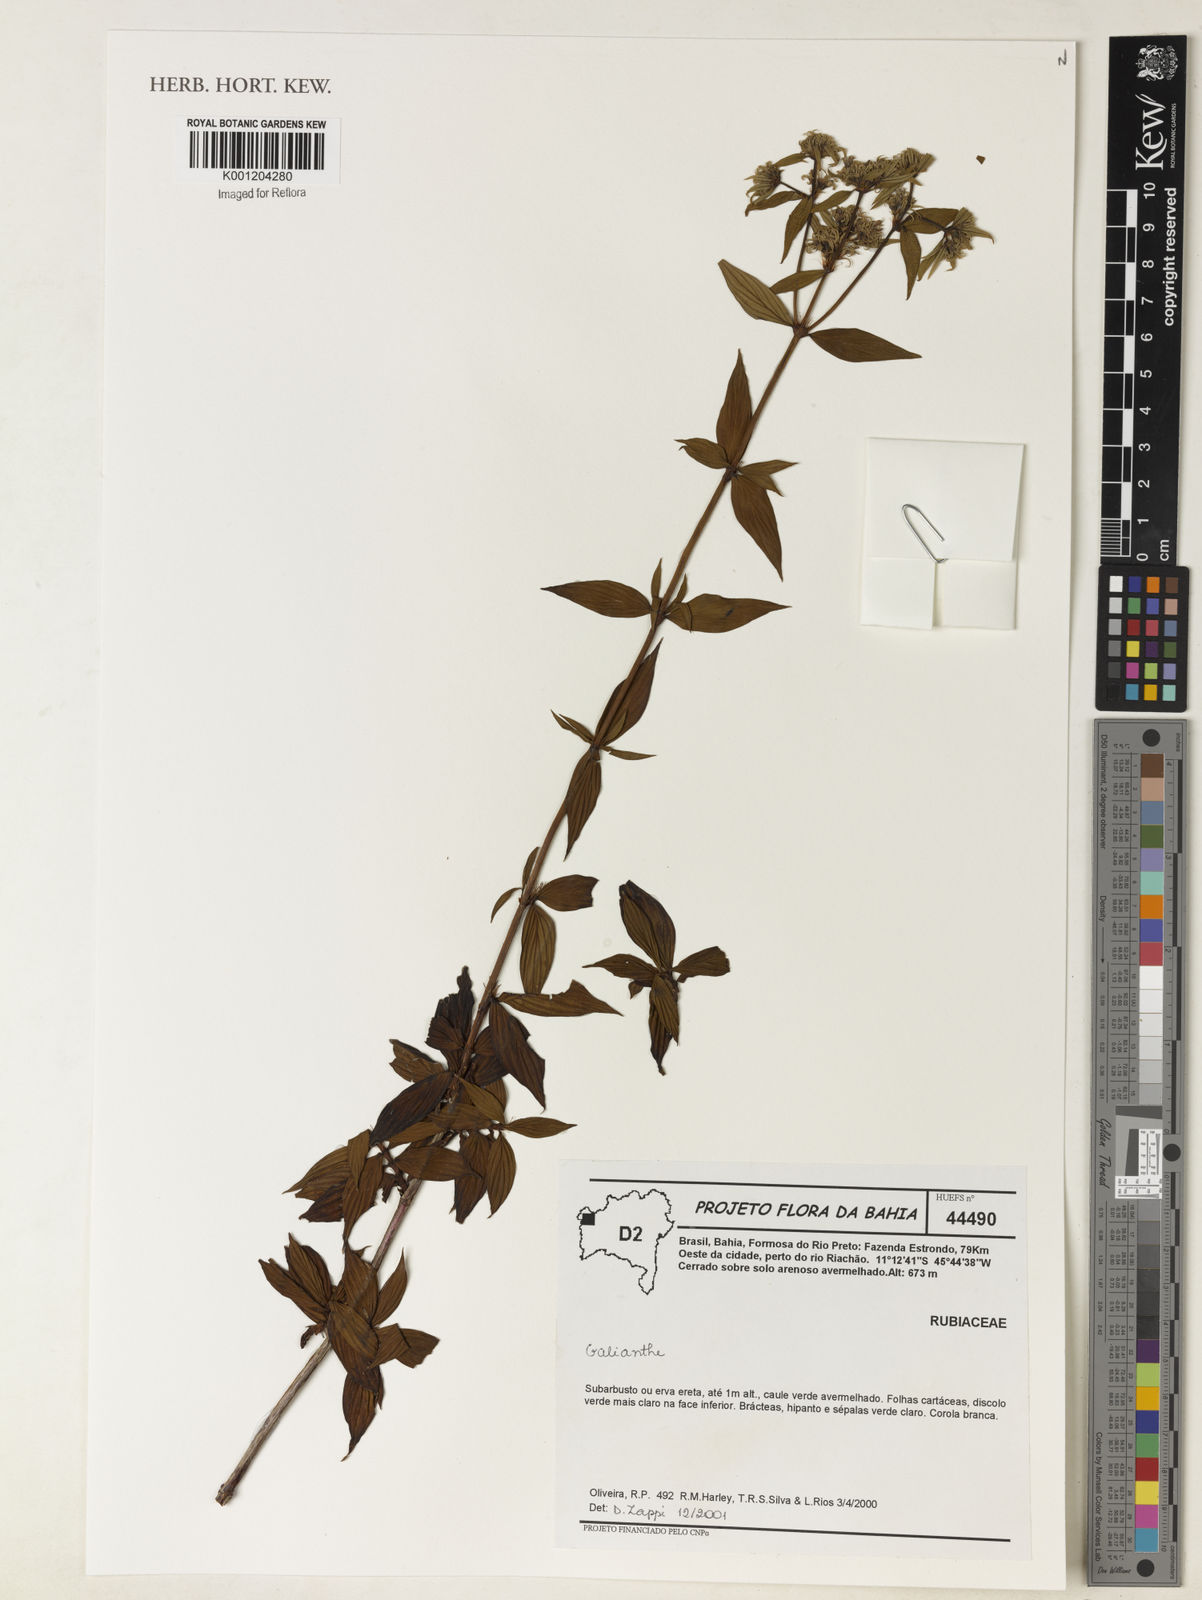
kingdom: Plantae
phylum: Tracheophyta
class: Magnoliopsida
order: Gentianales
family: Rubiaceae
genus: Galianthe
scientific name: Galianthe
